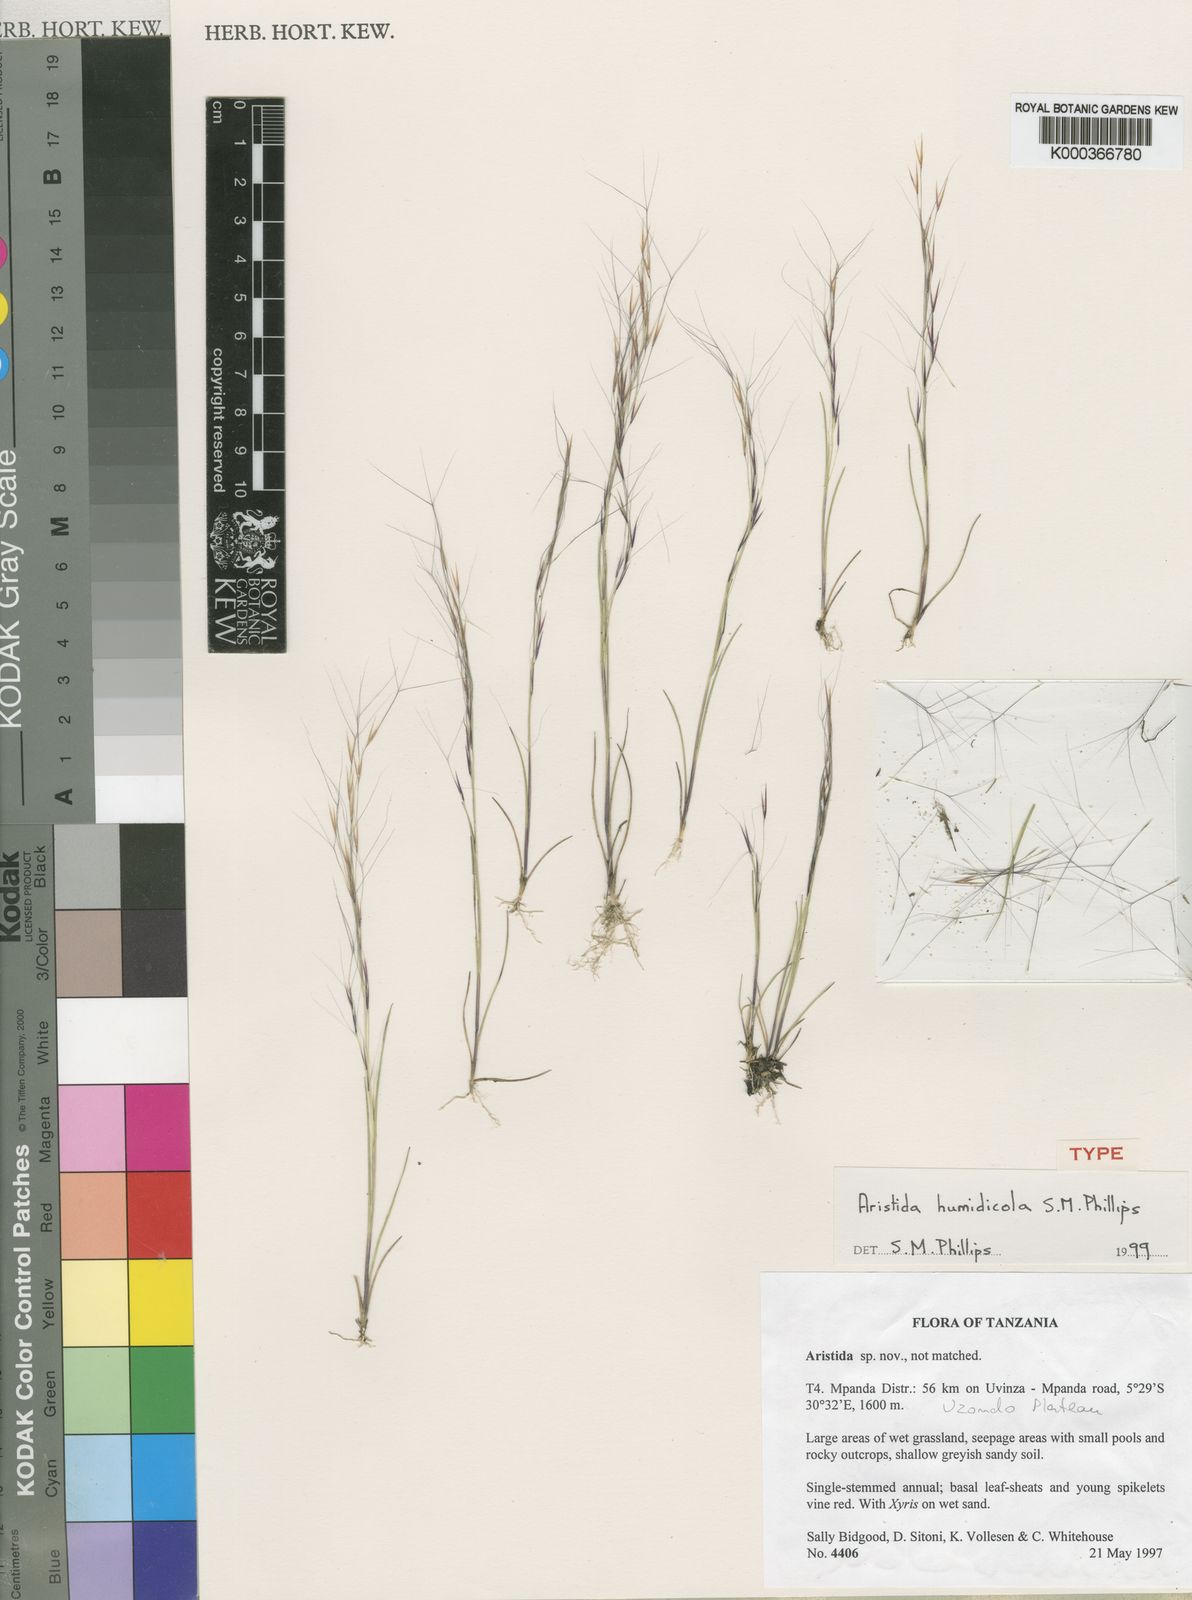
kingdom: Plantae
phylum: Tracheophyta
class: Liliopsida
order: Poales
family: Poaceae
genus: Aristida
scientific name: Aristida humidicola
